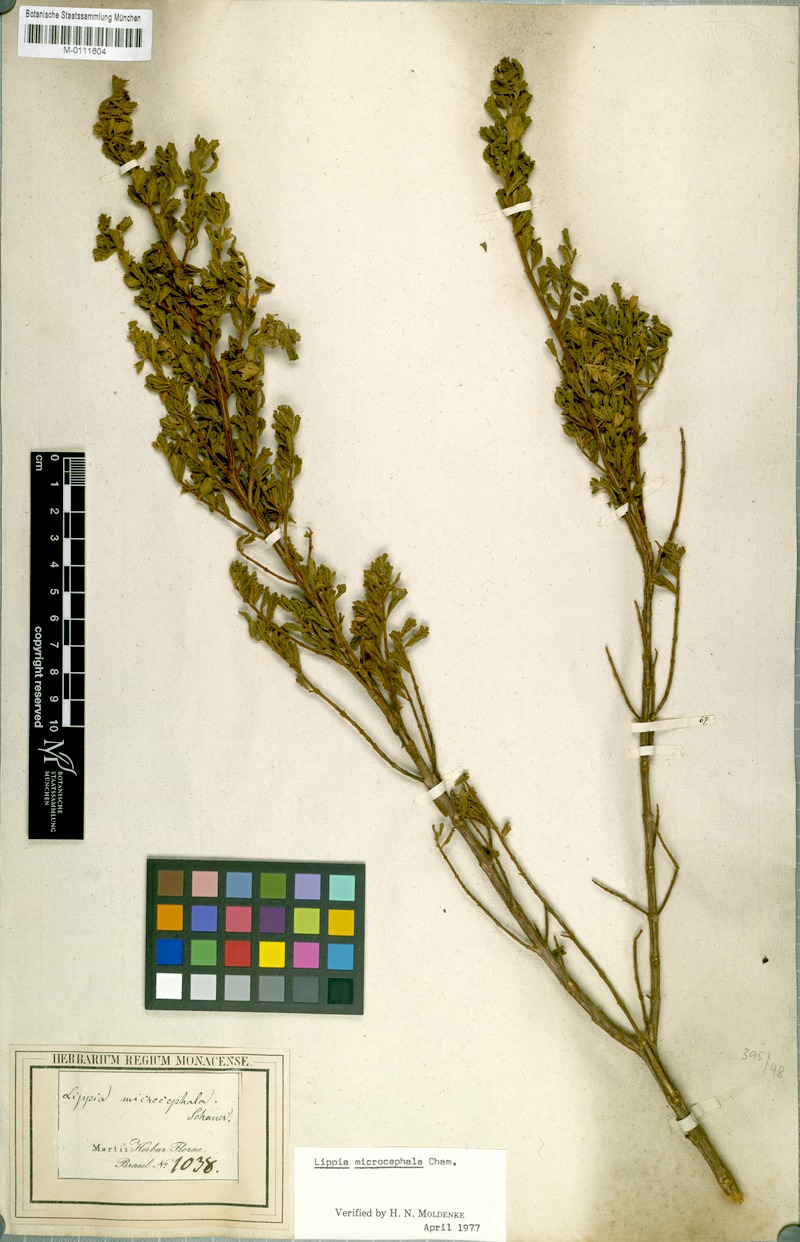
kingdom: Plantae
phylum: Tracheophyta
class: Magnoliopsida
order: Lamiales
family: Verbenaceae
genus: Lippia
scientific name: Lippia hermannioides
